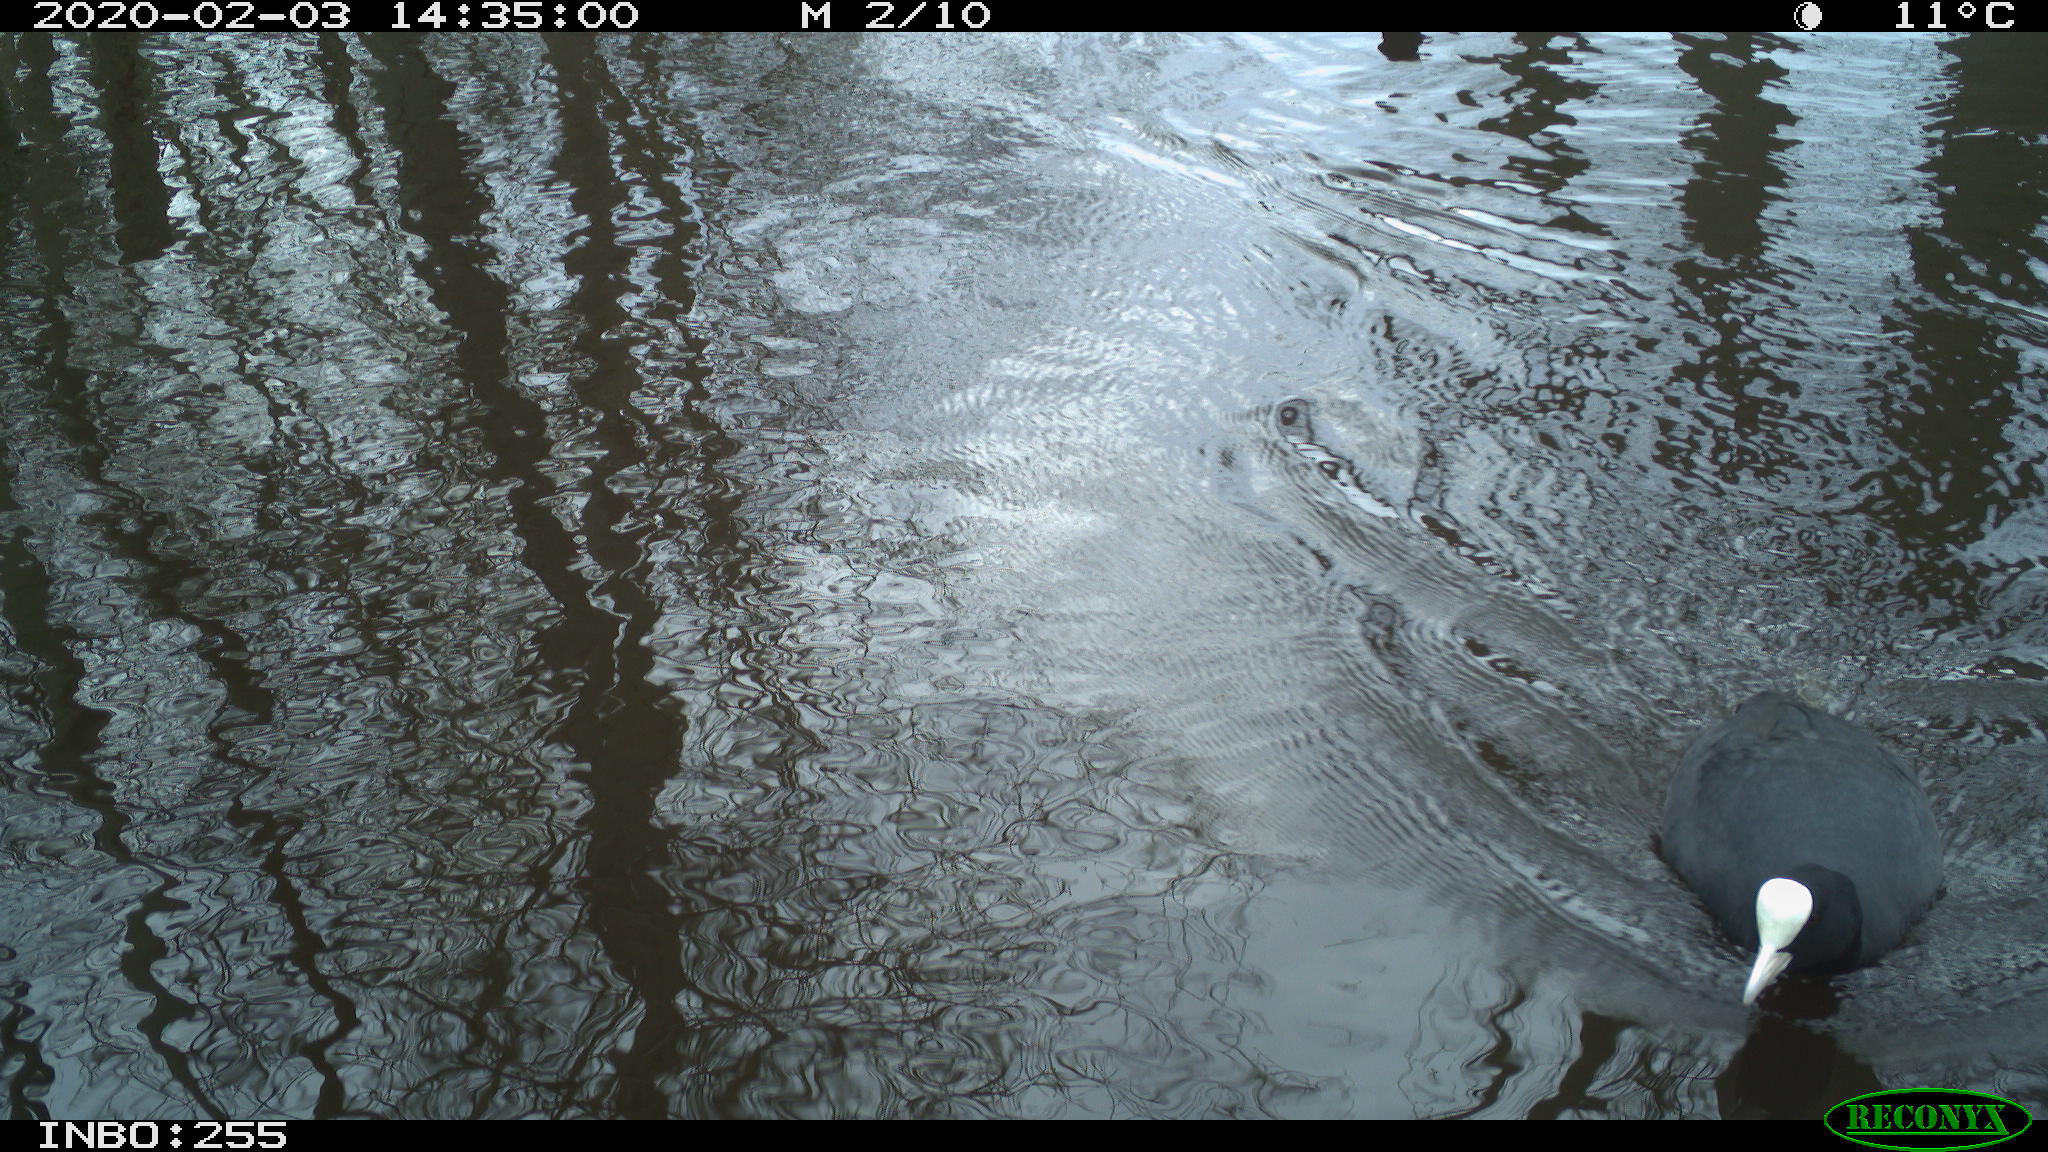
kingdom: Animalia
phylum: Chordata
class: Aves
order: Gruiformes
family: Rallidae
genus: Fulica
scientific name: Fulica atra
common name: Eurasian coot
